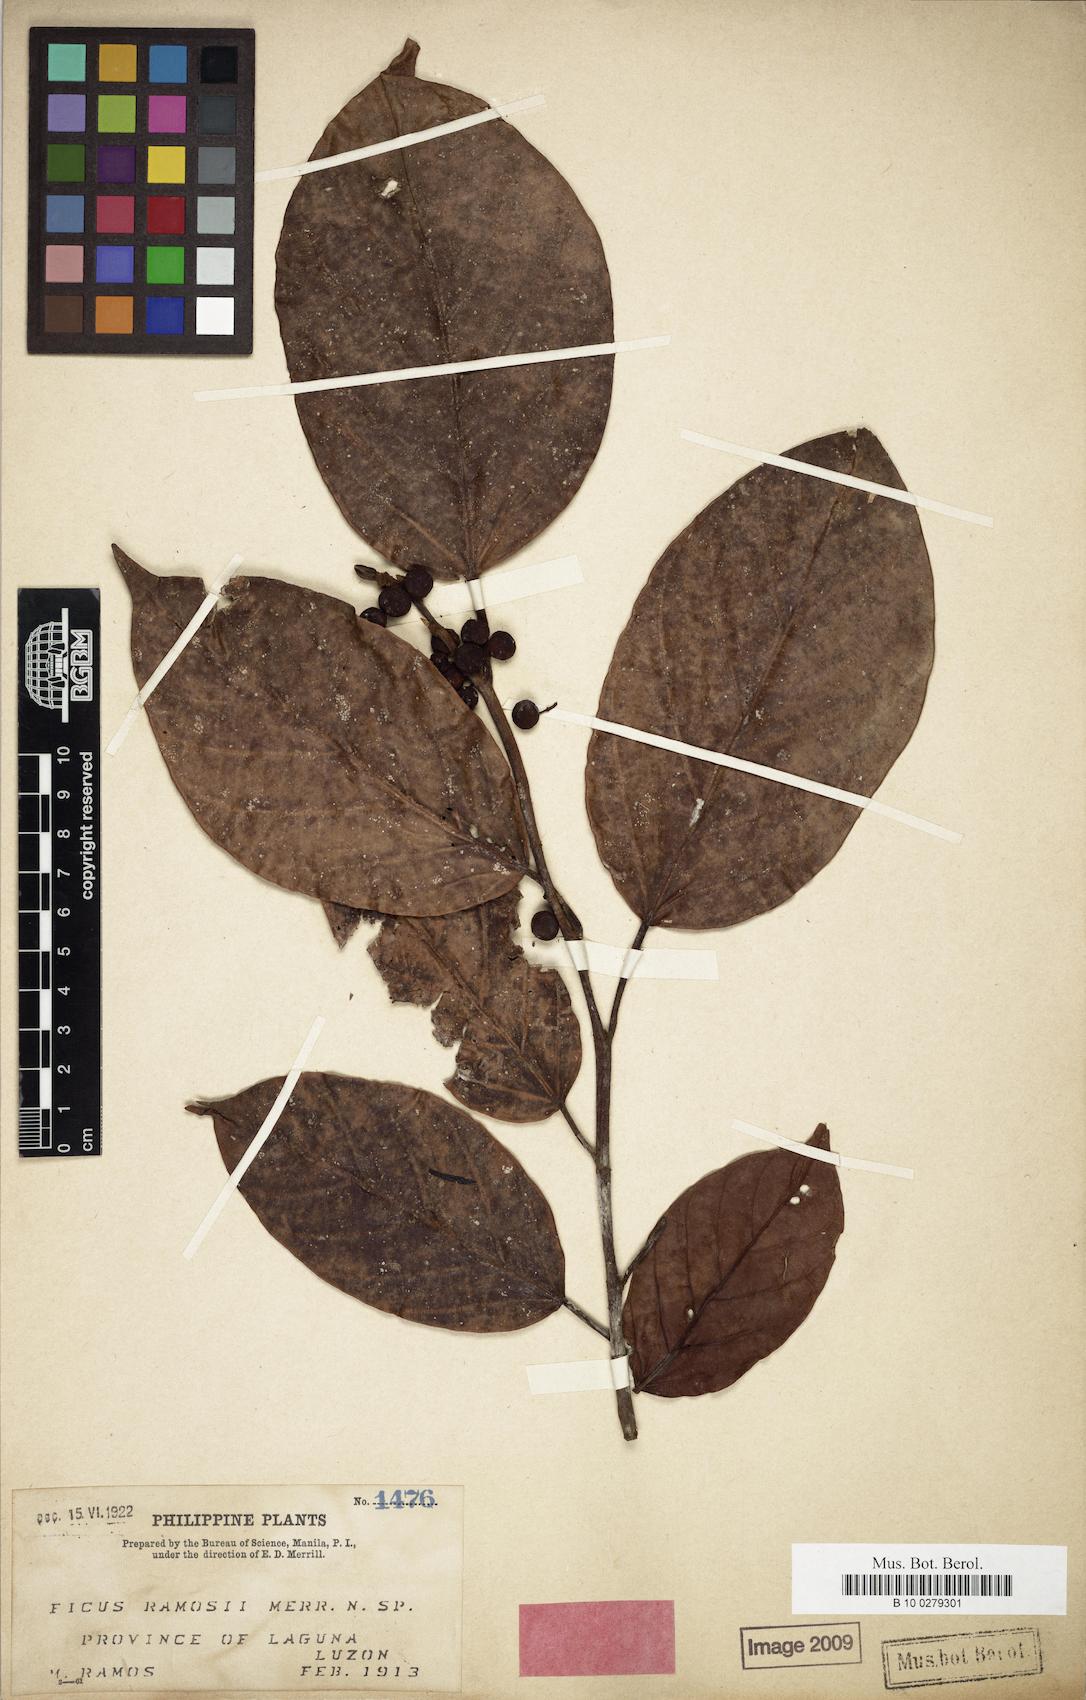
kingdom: Plantae
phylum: Tracheophyta
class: Magnoliopsida
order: Rosales
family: Moraceae
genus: Ficus
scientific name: Ficus sagittata
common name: Trailing fig
